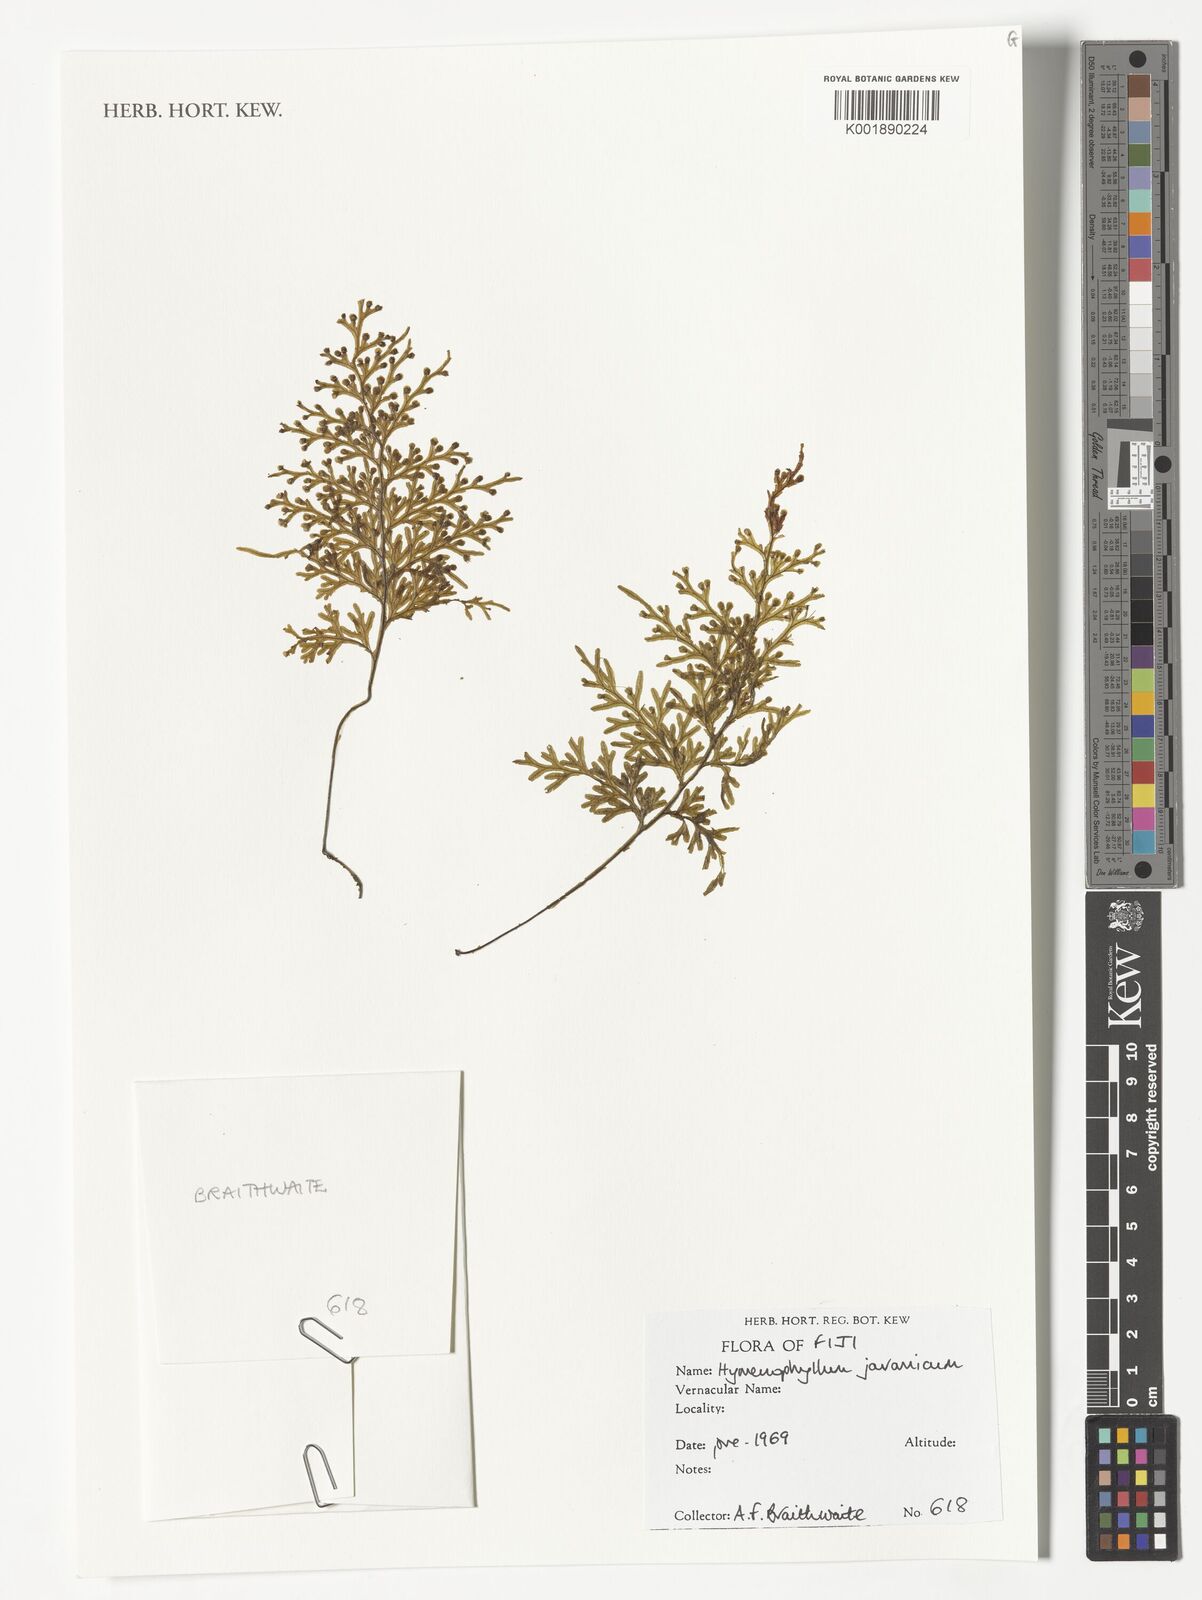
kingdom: Plantae
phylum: Tracheophyta
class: Polypodiopsida
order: Hymenophyllales
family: Hymenophyllaceae
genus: Hymenophyllum
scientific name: Hymenophyllum javanicum
